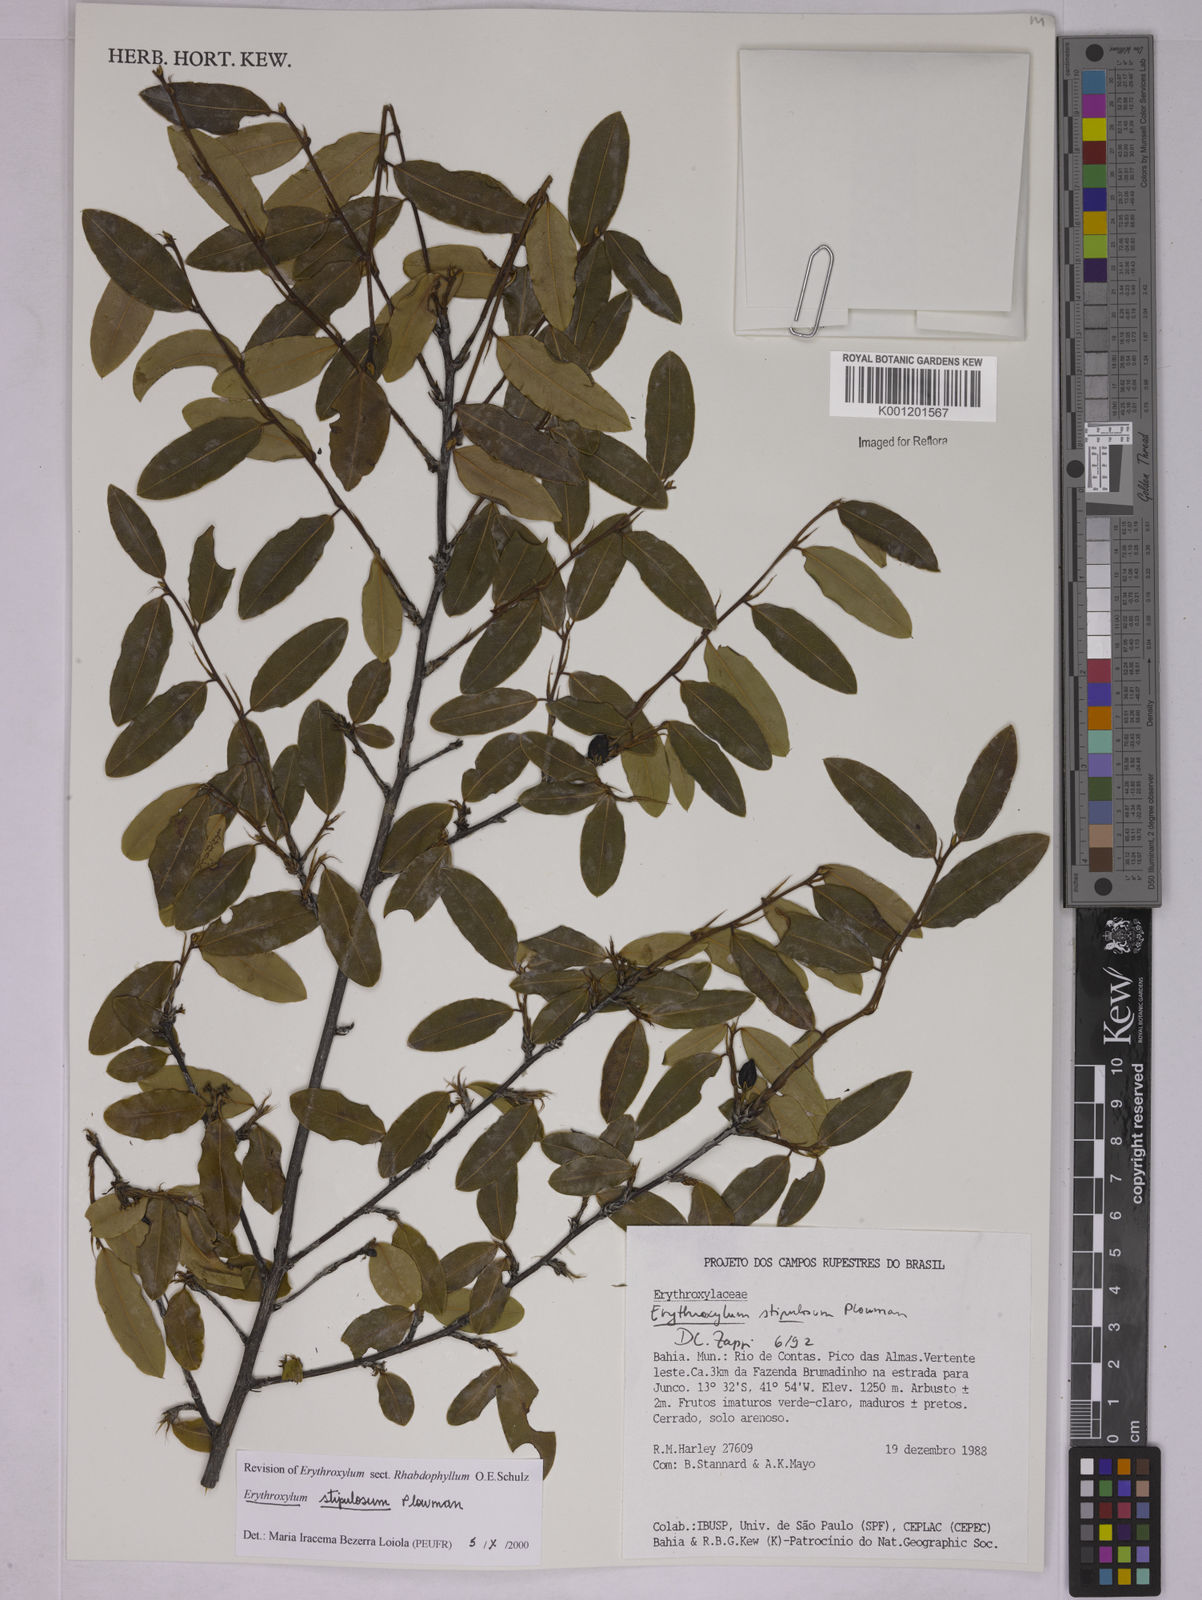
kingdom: Plantae
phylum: Tracheophyta
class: Magnoliopsida
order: Malpighiales
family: Erythroxylaceae
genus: Erythroxylum
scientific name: Erythroxylum stipulosum
